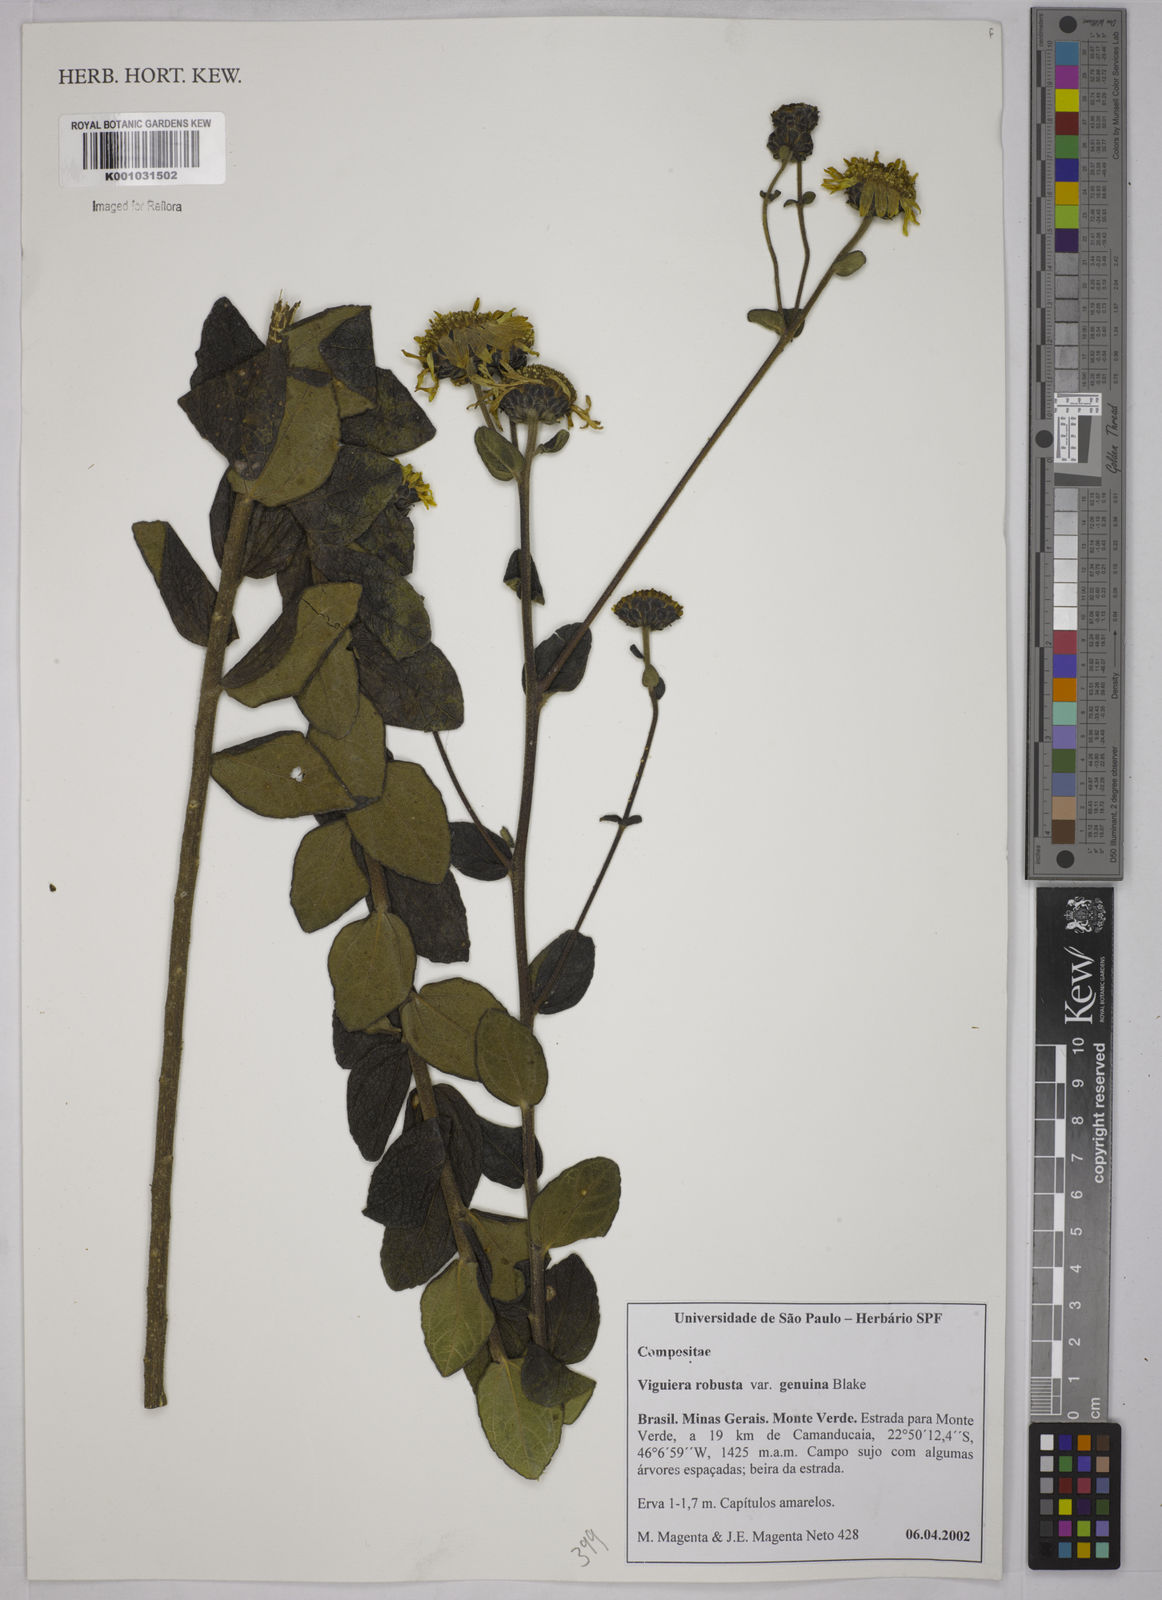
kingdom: Plantae
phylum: Tracheophyta
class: Magnoliopsida
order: Asterales
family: Asteraceae
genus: Aldama
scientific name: Aldama robusta
